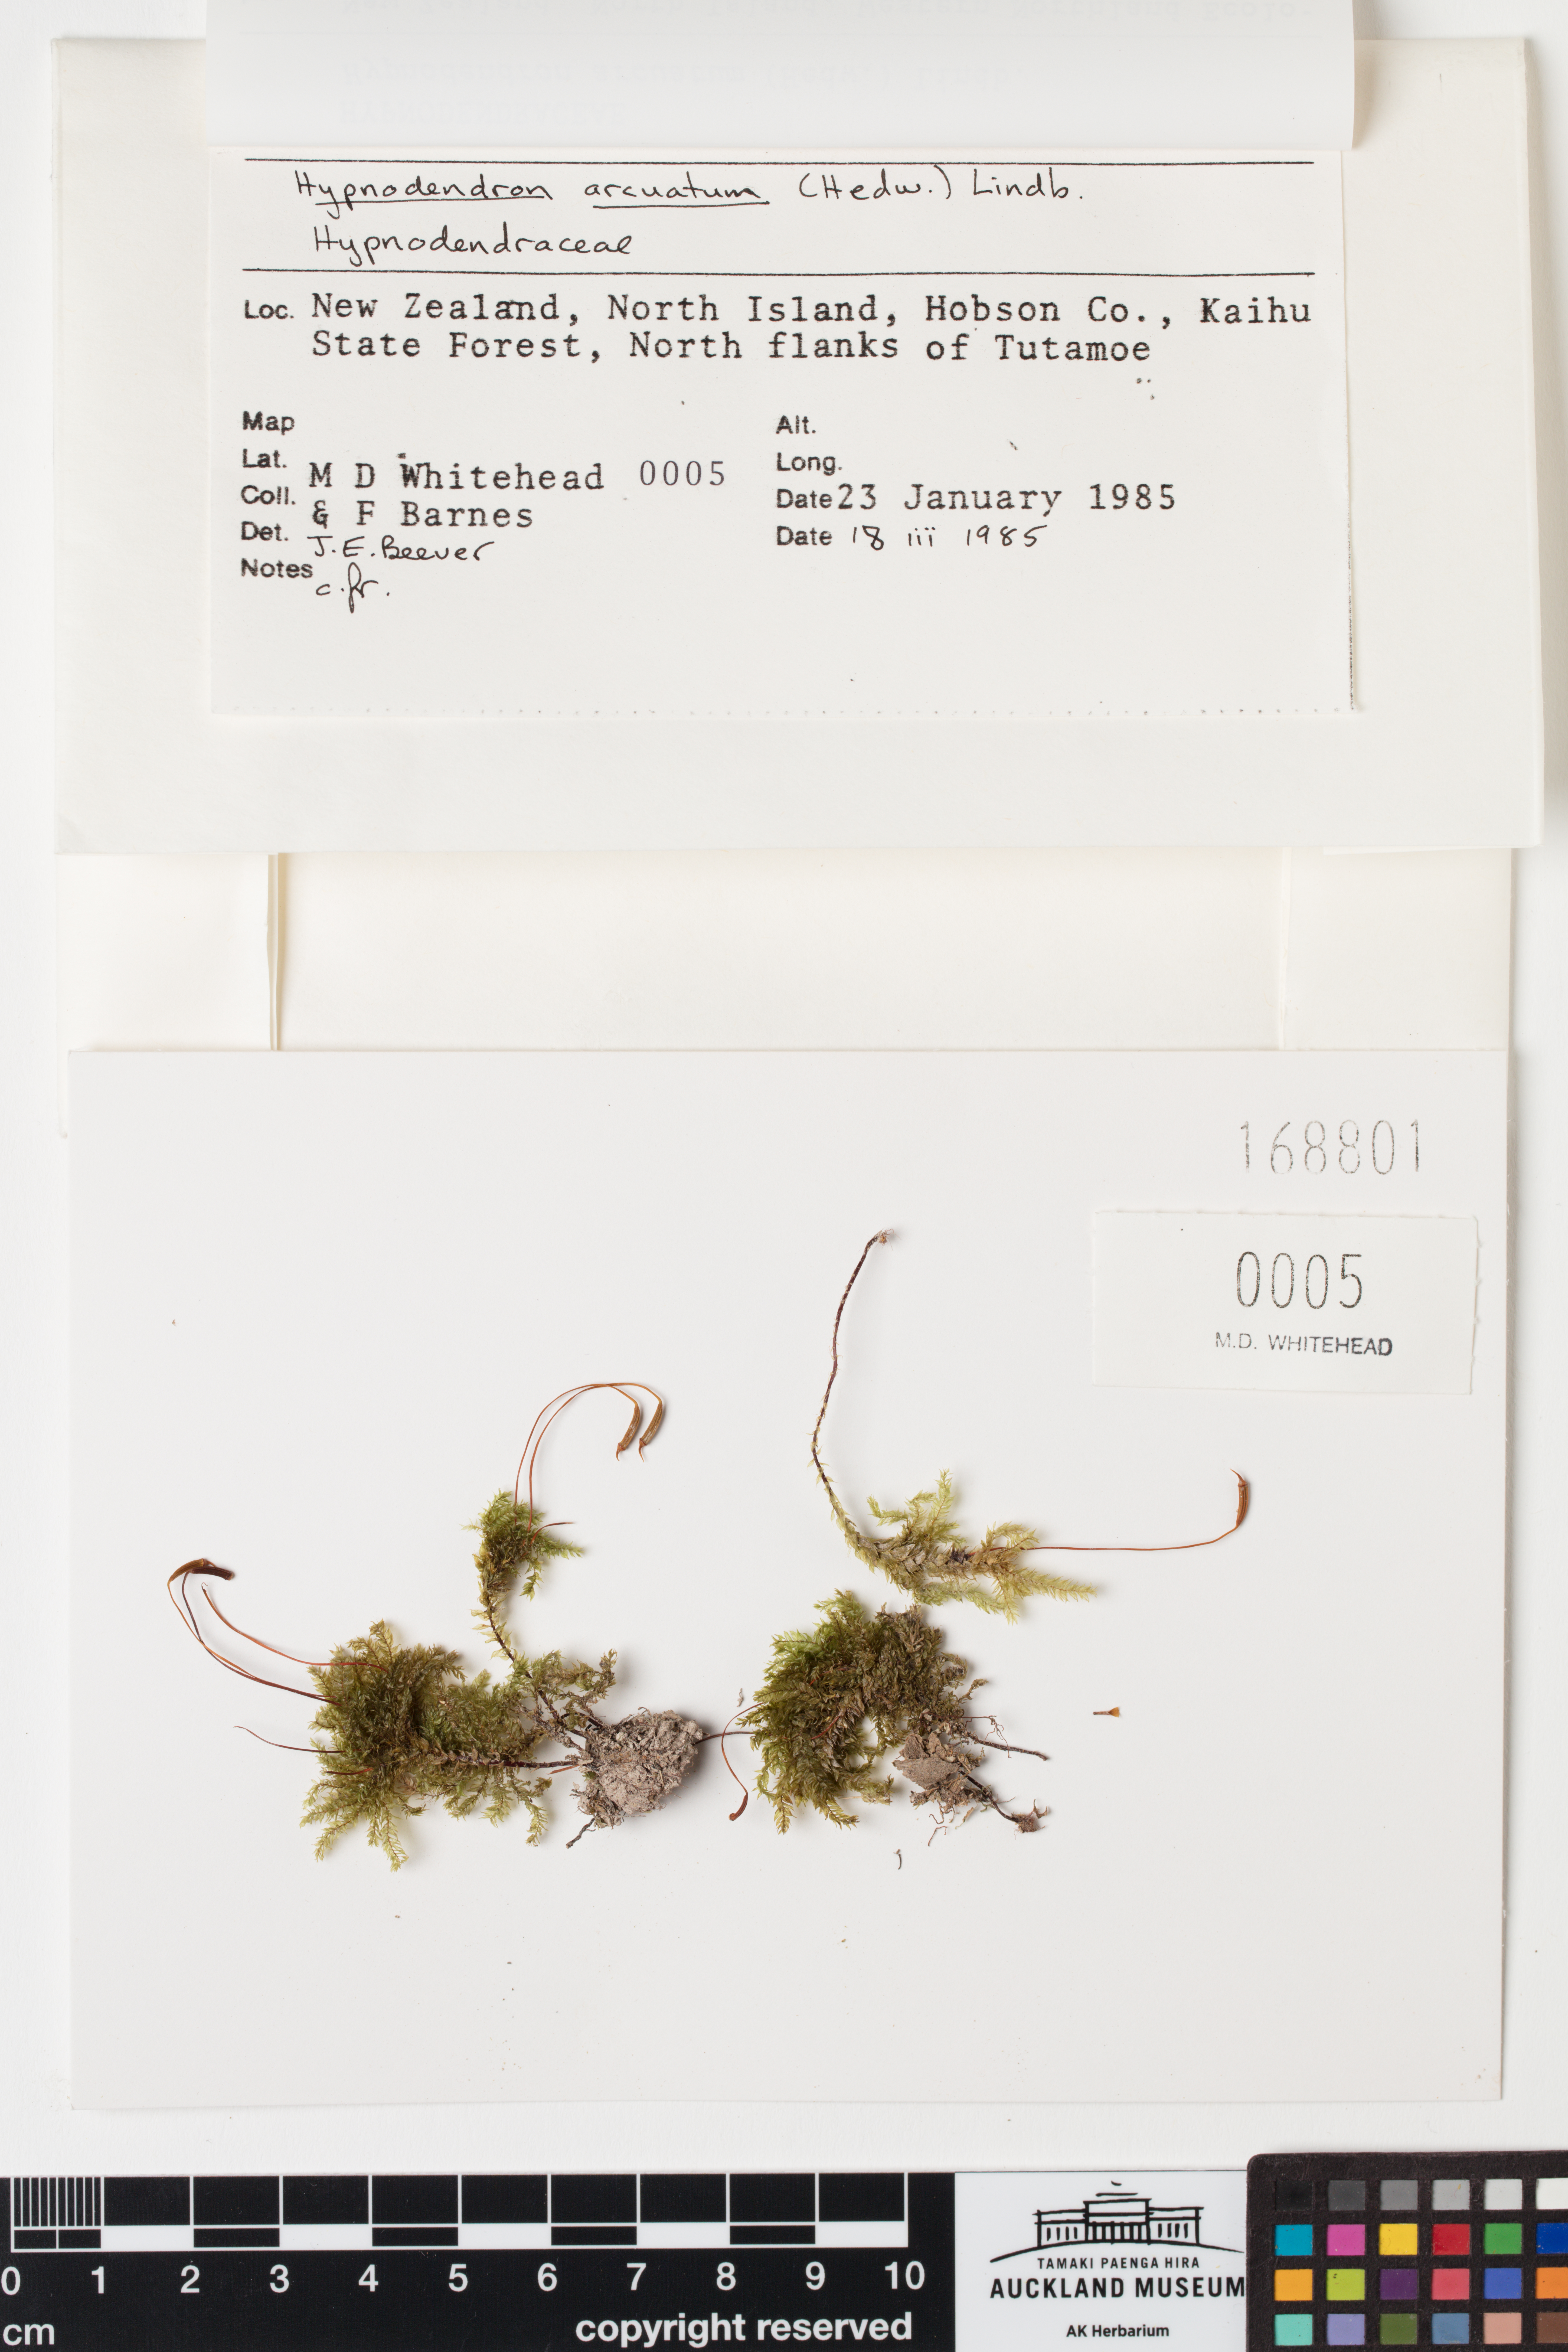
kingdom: Plantae
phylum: Bryophyta
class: Bryopsida
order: Hypnodendrales
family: Spiridentaceae
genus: Hypnodendron
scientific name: Hypnodendron arcuatum
